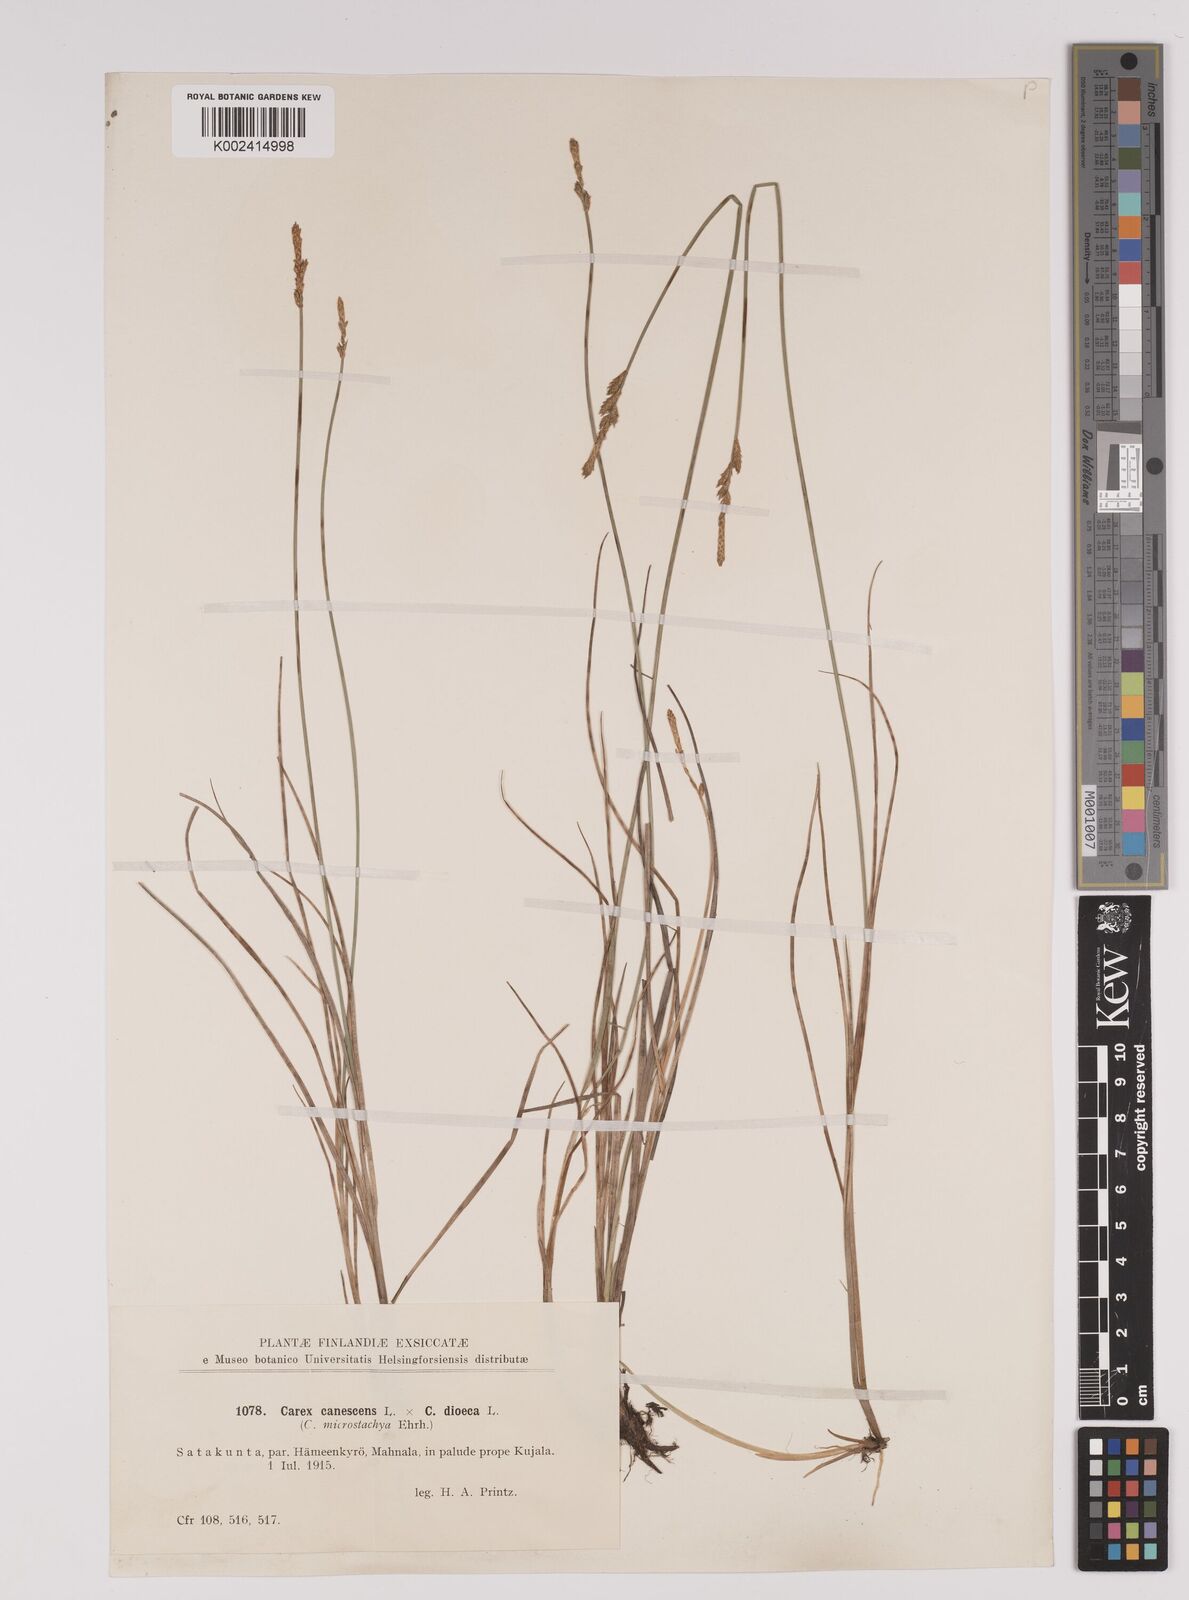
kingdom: Plantae
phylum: Tracheophyta
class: Liliopsida
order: Poales
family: Cyperaceae
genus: Carex
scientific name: Carex dioica
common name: Dioecious sedge
